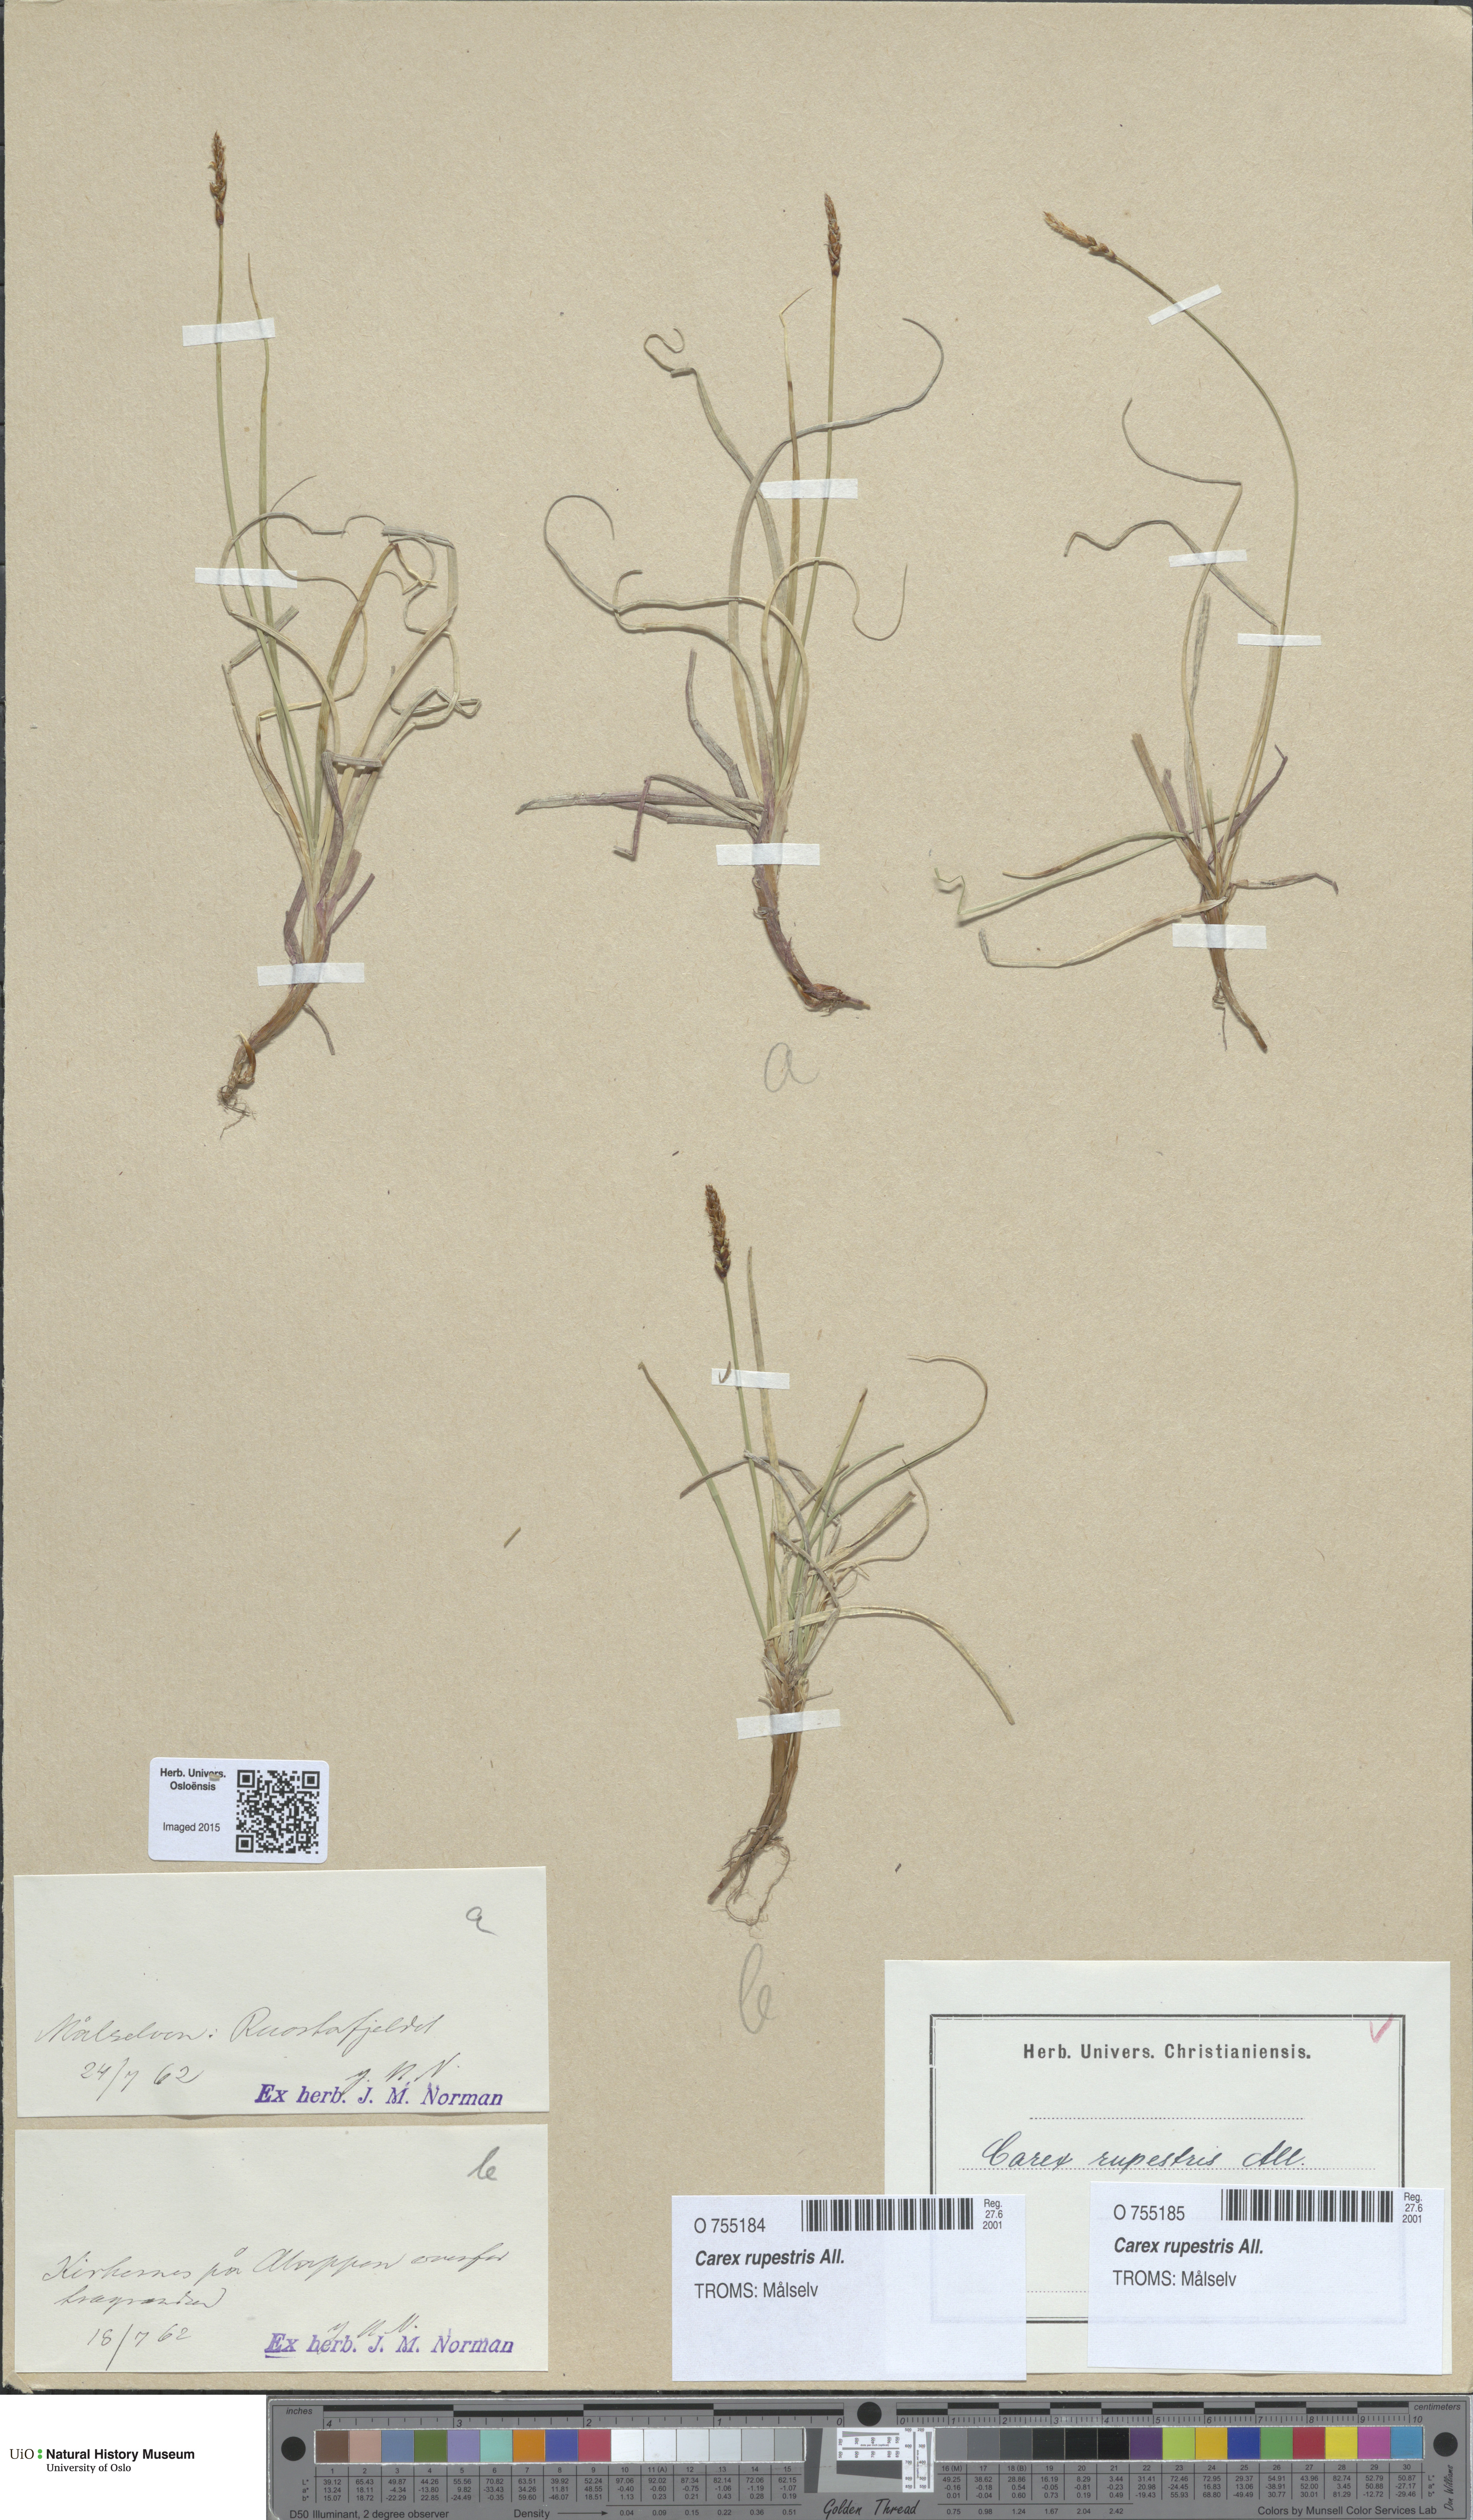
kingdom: Plantae
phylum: Tracheophyta
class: Liliopsida
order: Poales
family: Cyperaceae
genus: Carex
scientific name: Carex rupestris
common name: Rock sedge
